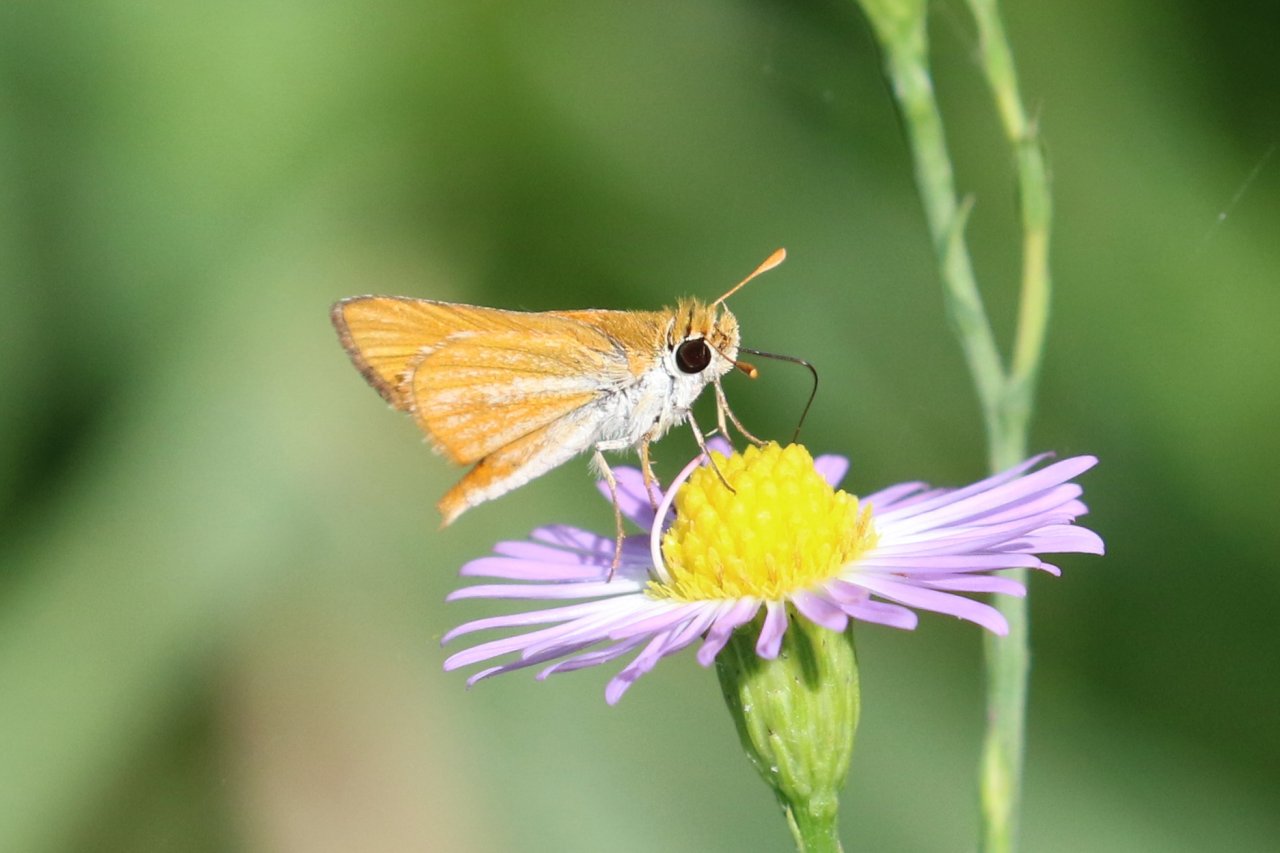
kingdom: Animalia
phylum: Arthropoda
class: Insecta
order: Lepidoptera
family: Hesperiidae
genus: Copaeodes
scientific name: Copaeodes minima
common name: Southern Skipperling
